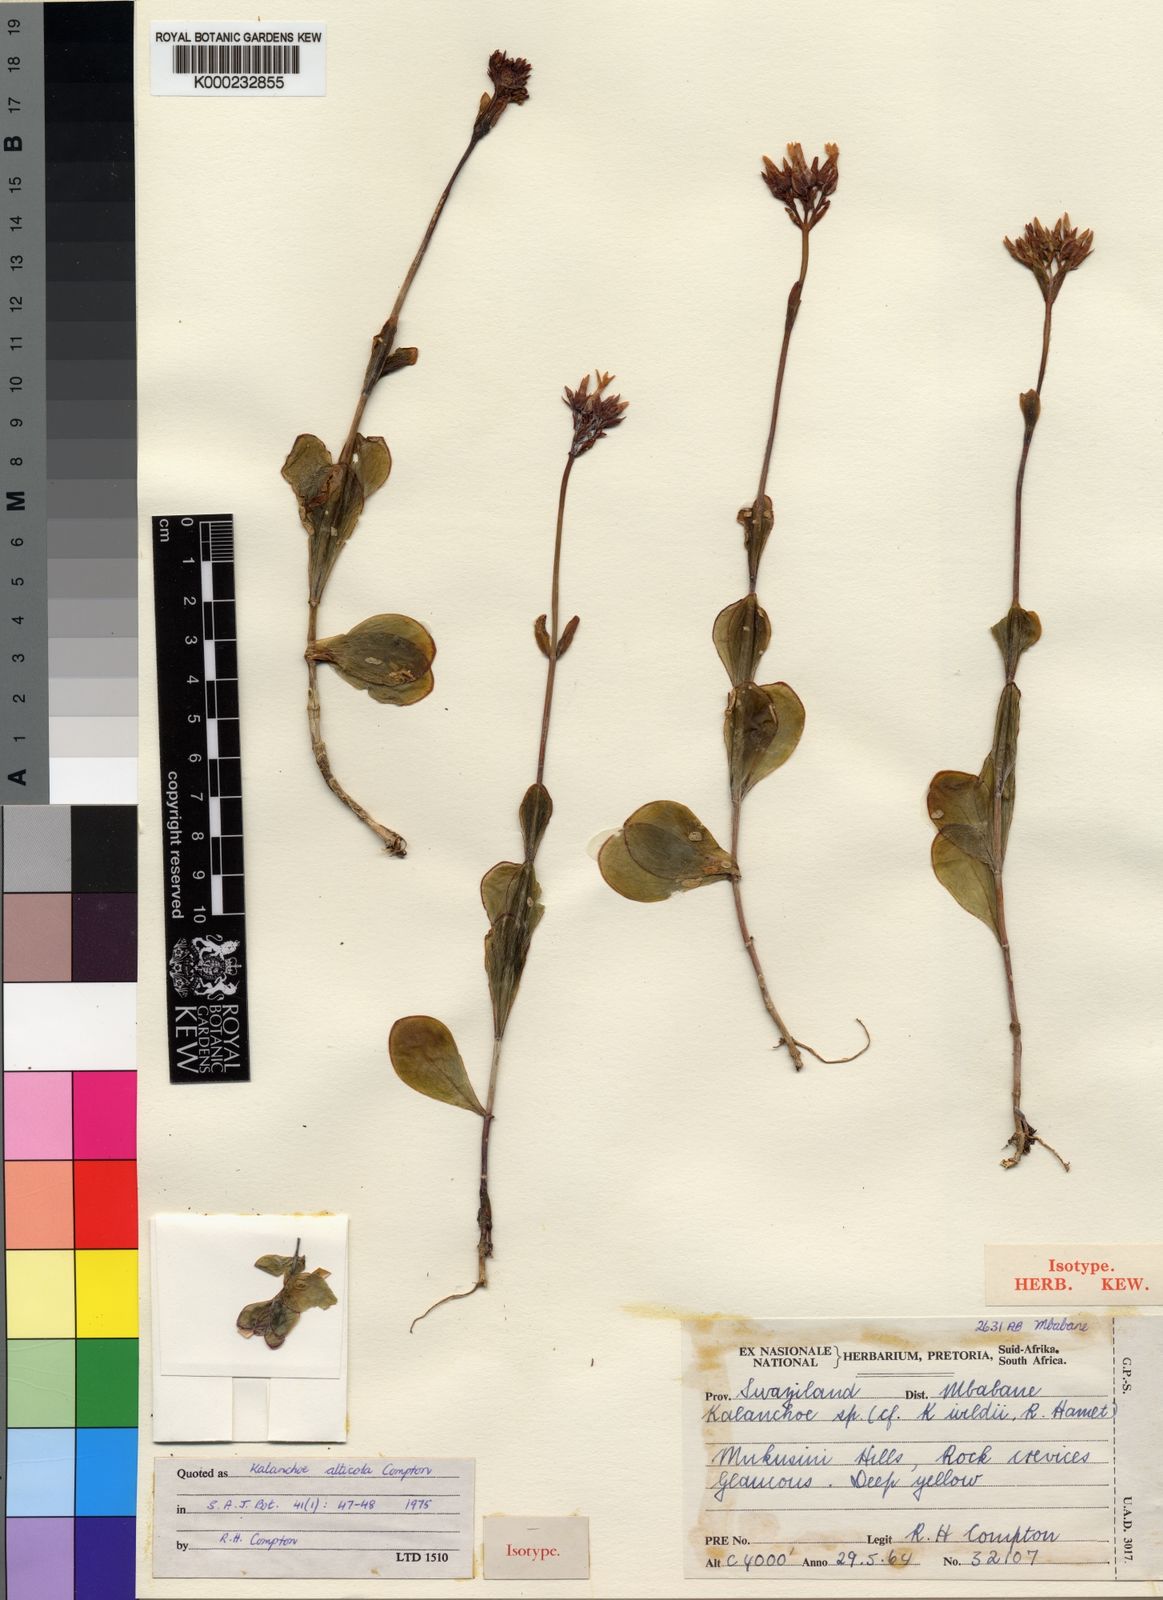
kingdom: Plantae
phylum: Tracheophyta
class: Magnoliopsida
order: Saxifragales
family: Crassulaceae
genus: Kalanchoe
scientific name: Kalanchoe alticola
